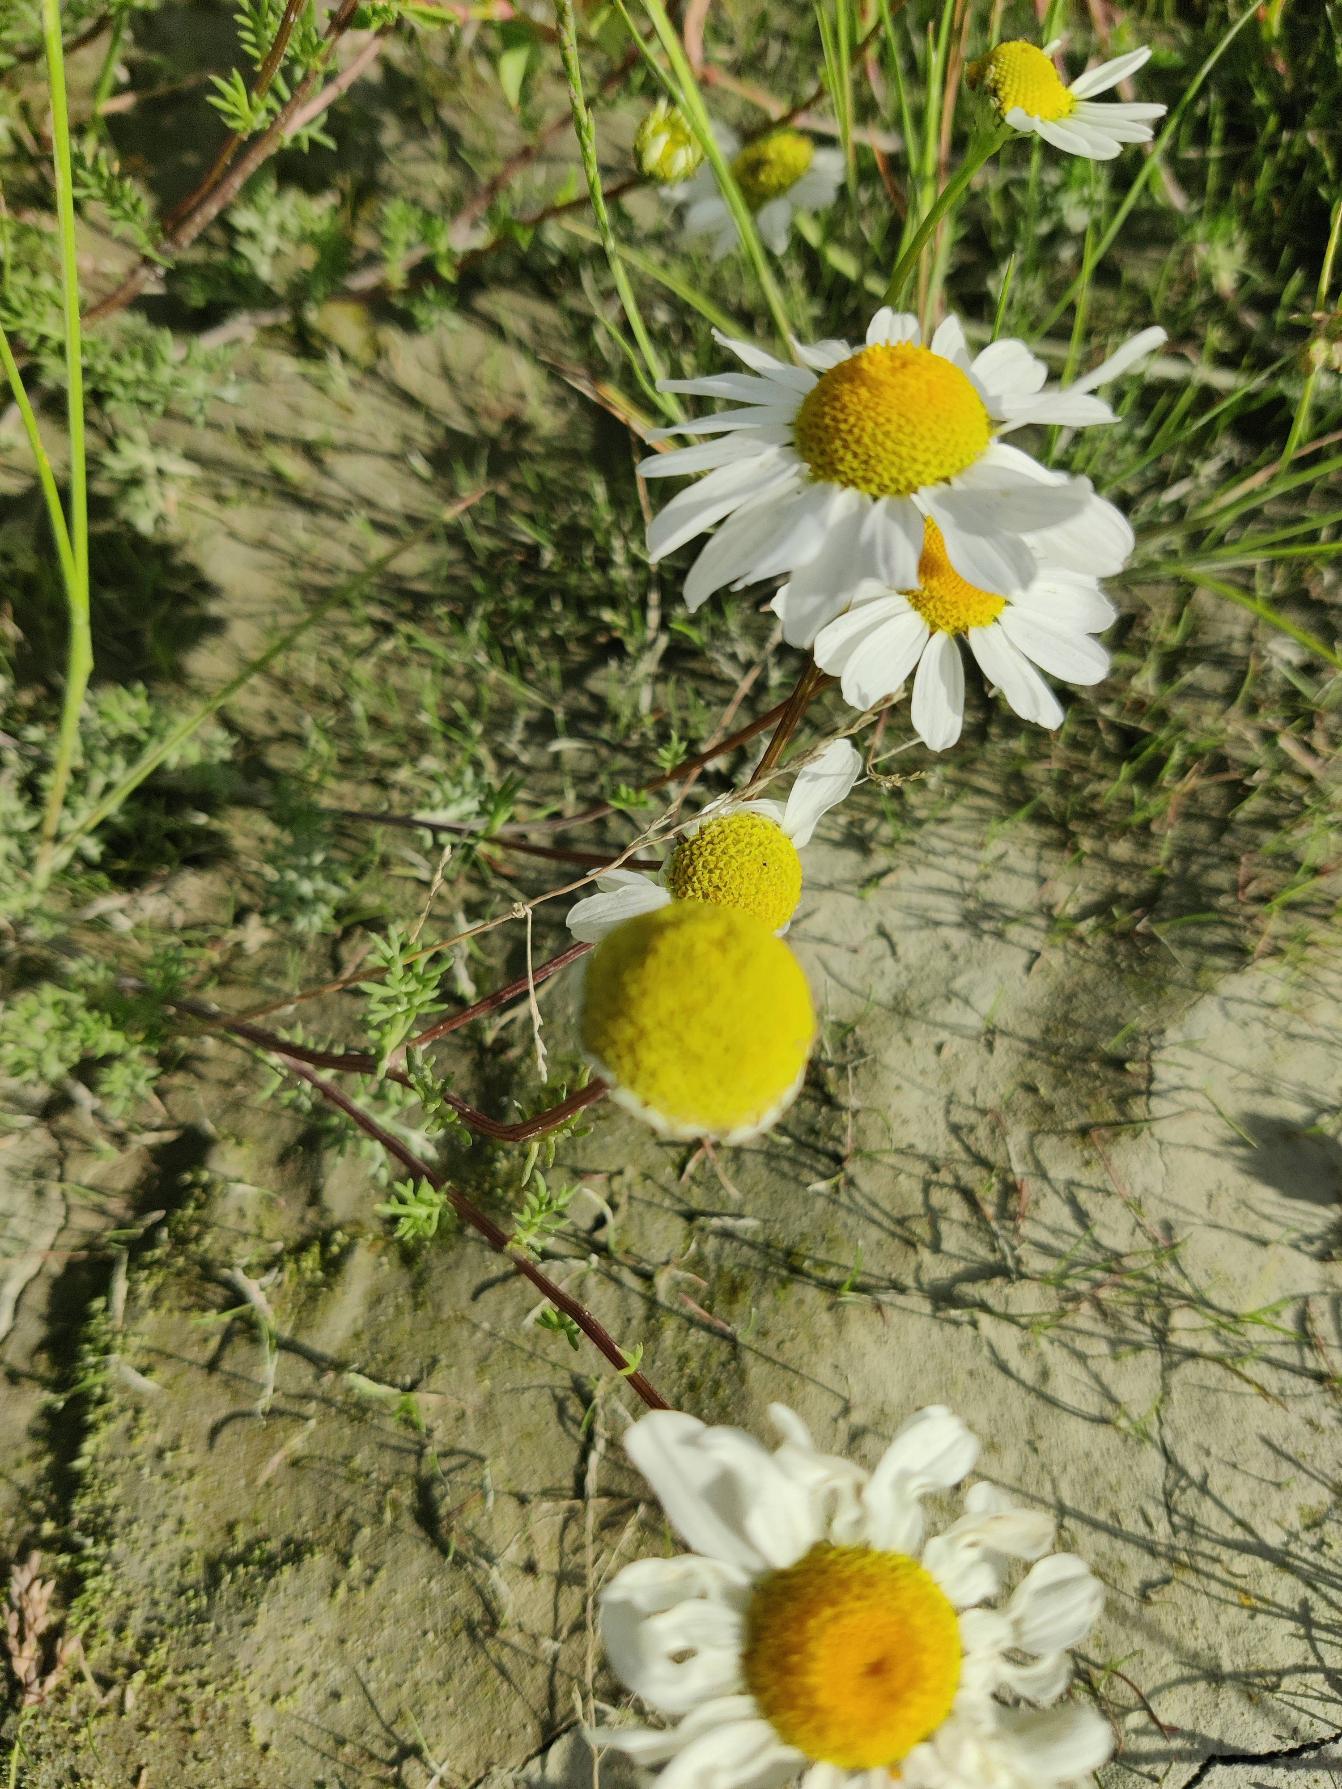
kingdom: Plantae
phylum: Tracheophyta
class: Magnoliopsida
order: Asterales
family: Asteraceae
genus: Tripleurospermum
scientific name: Tripleurospermum maritimum
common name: Strand-kamille
